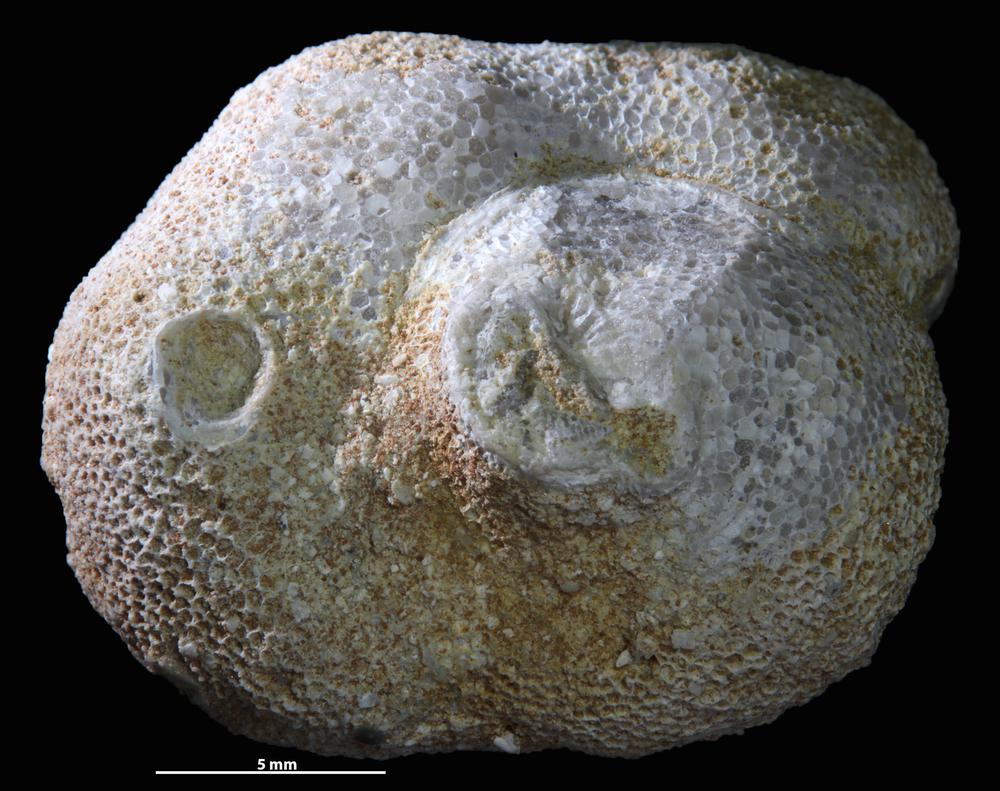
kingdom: Animalia
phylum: Bryozoa
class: Stenolaemata
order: Trepostomatida
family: Diplotrypidae
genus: Diplotrypa
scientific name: Diplotrypa petropolitana
